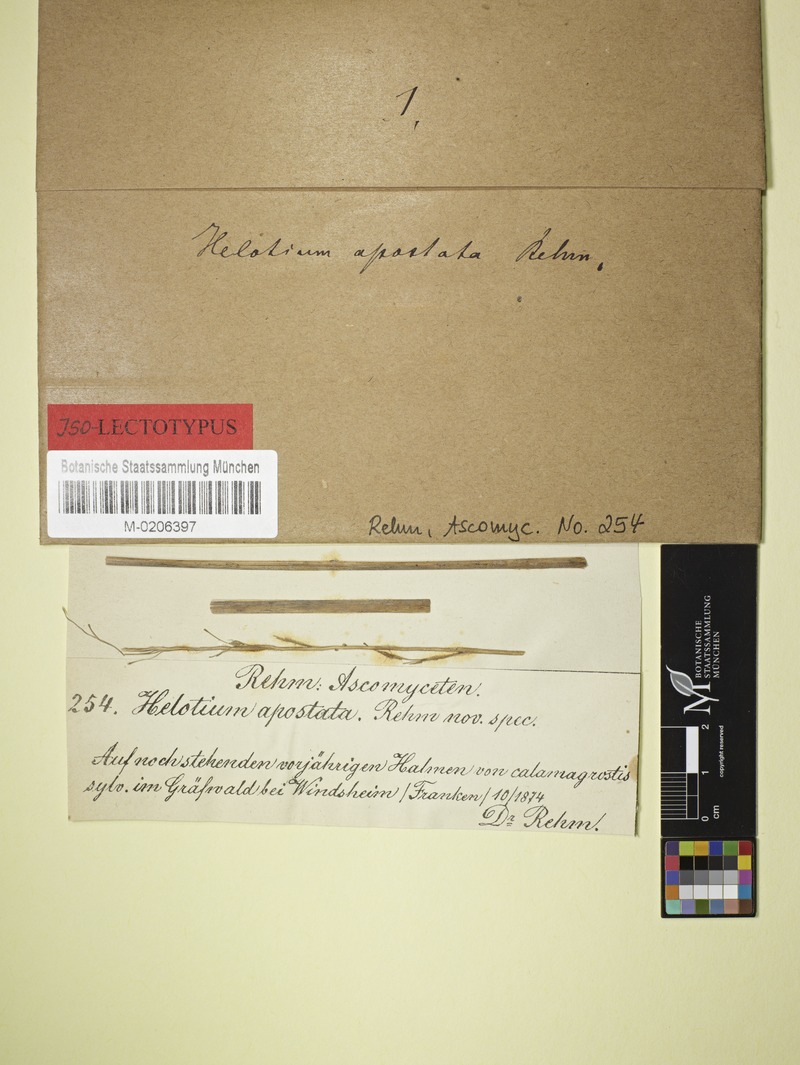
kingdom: Fungi
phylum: Ascomycota
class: Leotiomycetes
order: Helotiales
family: Helotiaceae
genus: Cyathicula
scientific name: Cyathicula culmicola
